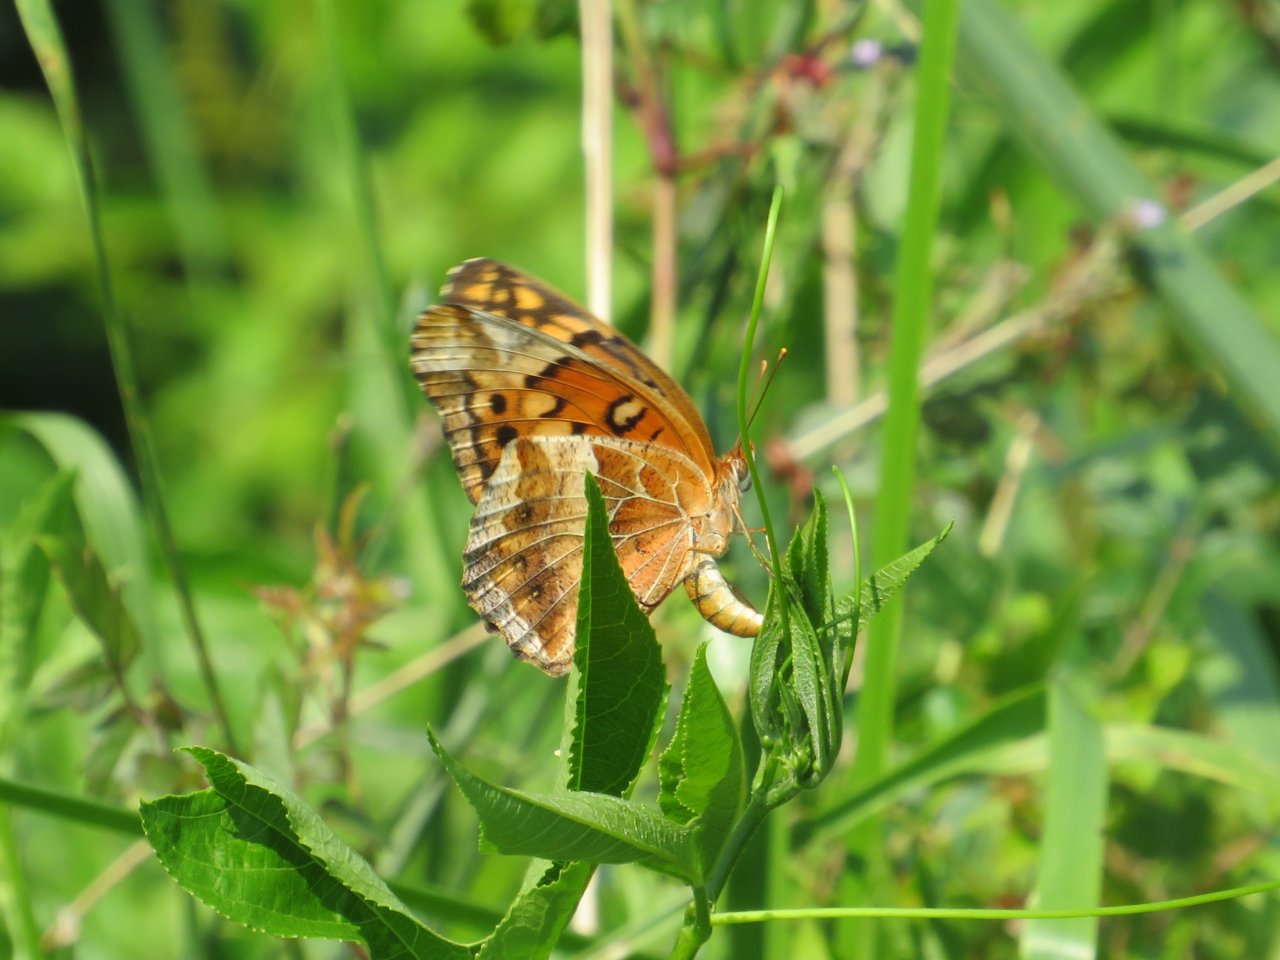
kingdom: Animalia
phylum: Arthropoda
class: Insecta
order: Lepidoptera
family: Nymphalidae
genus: Euptoieta
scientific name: Euptoieta claudia
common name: Variegated Fritillary
